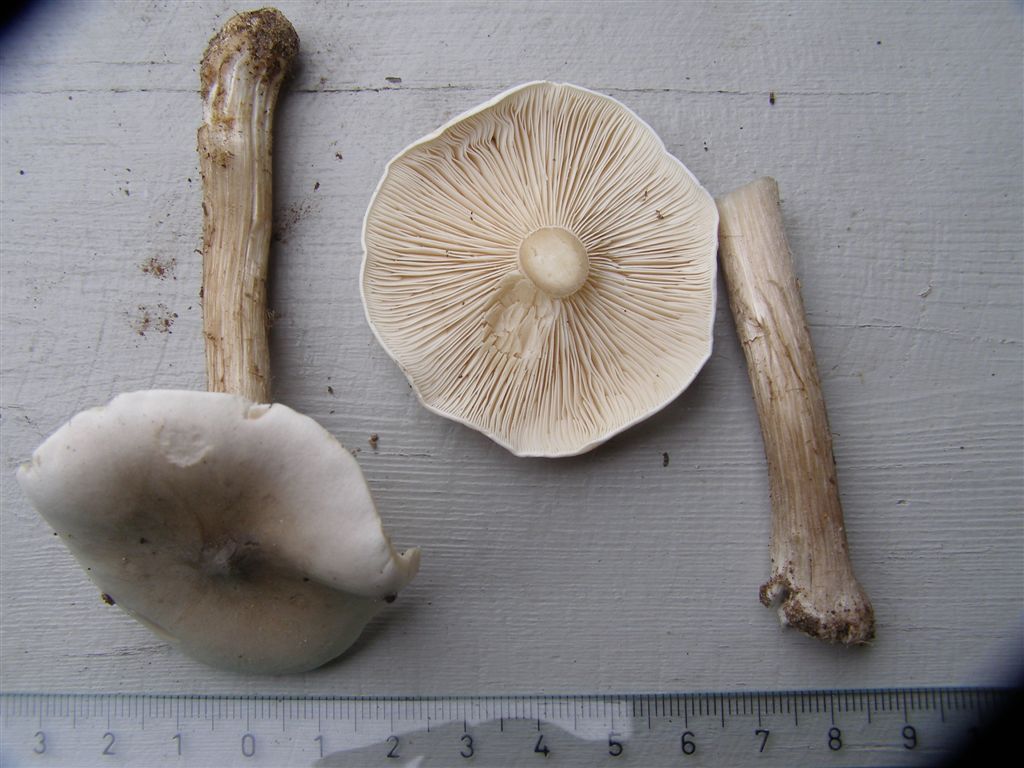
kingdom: Fungi
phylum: Basidiomycota
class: Agaricomycetes
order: Agaricales
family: Tricholomataceae
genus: Melanoleuca
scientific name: Melanoleuca exscissa
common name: gusten munkehat
